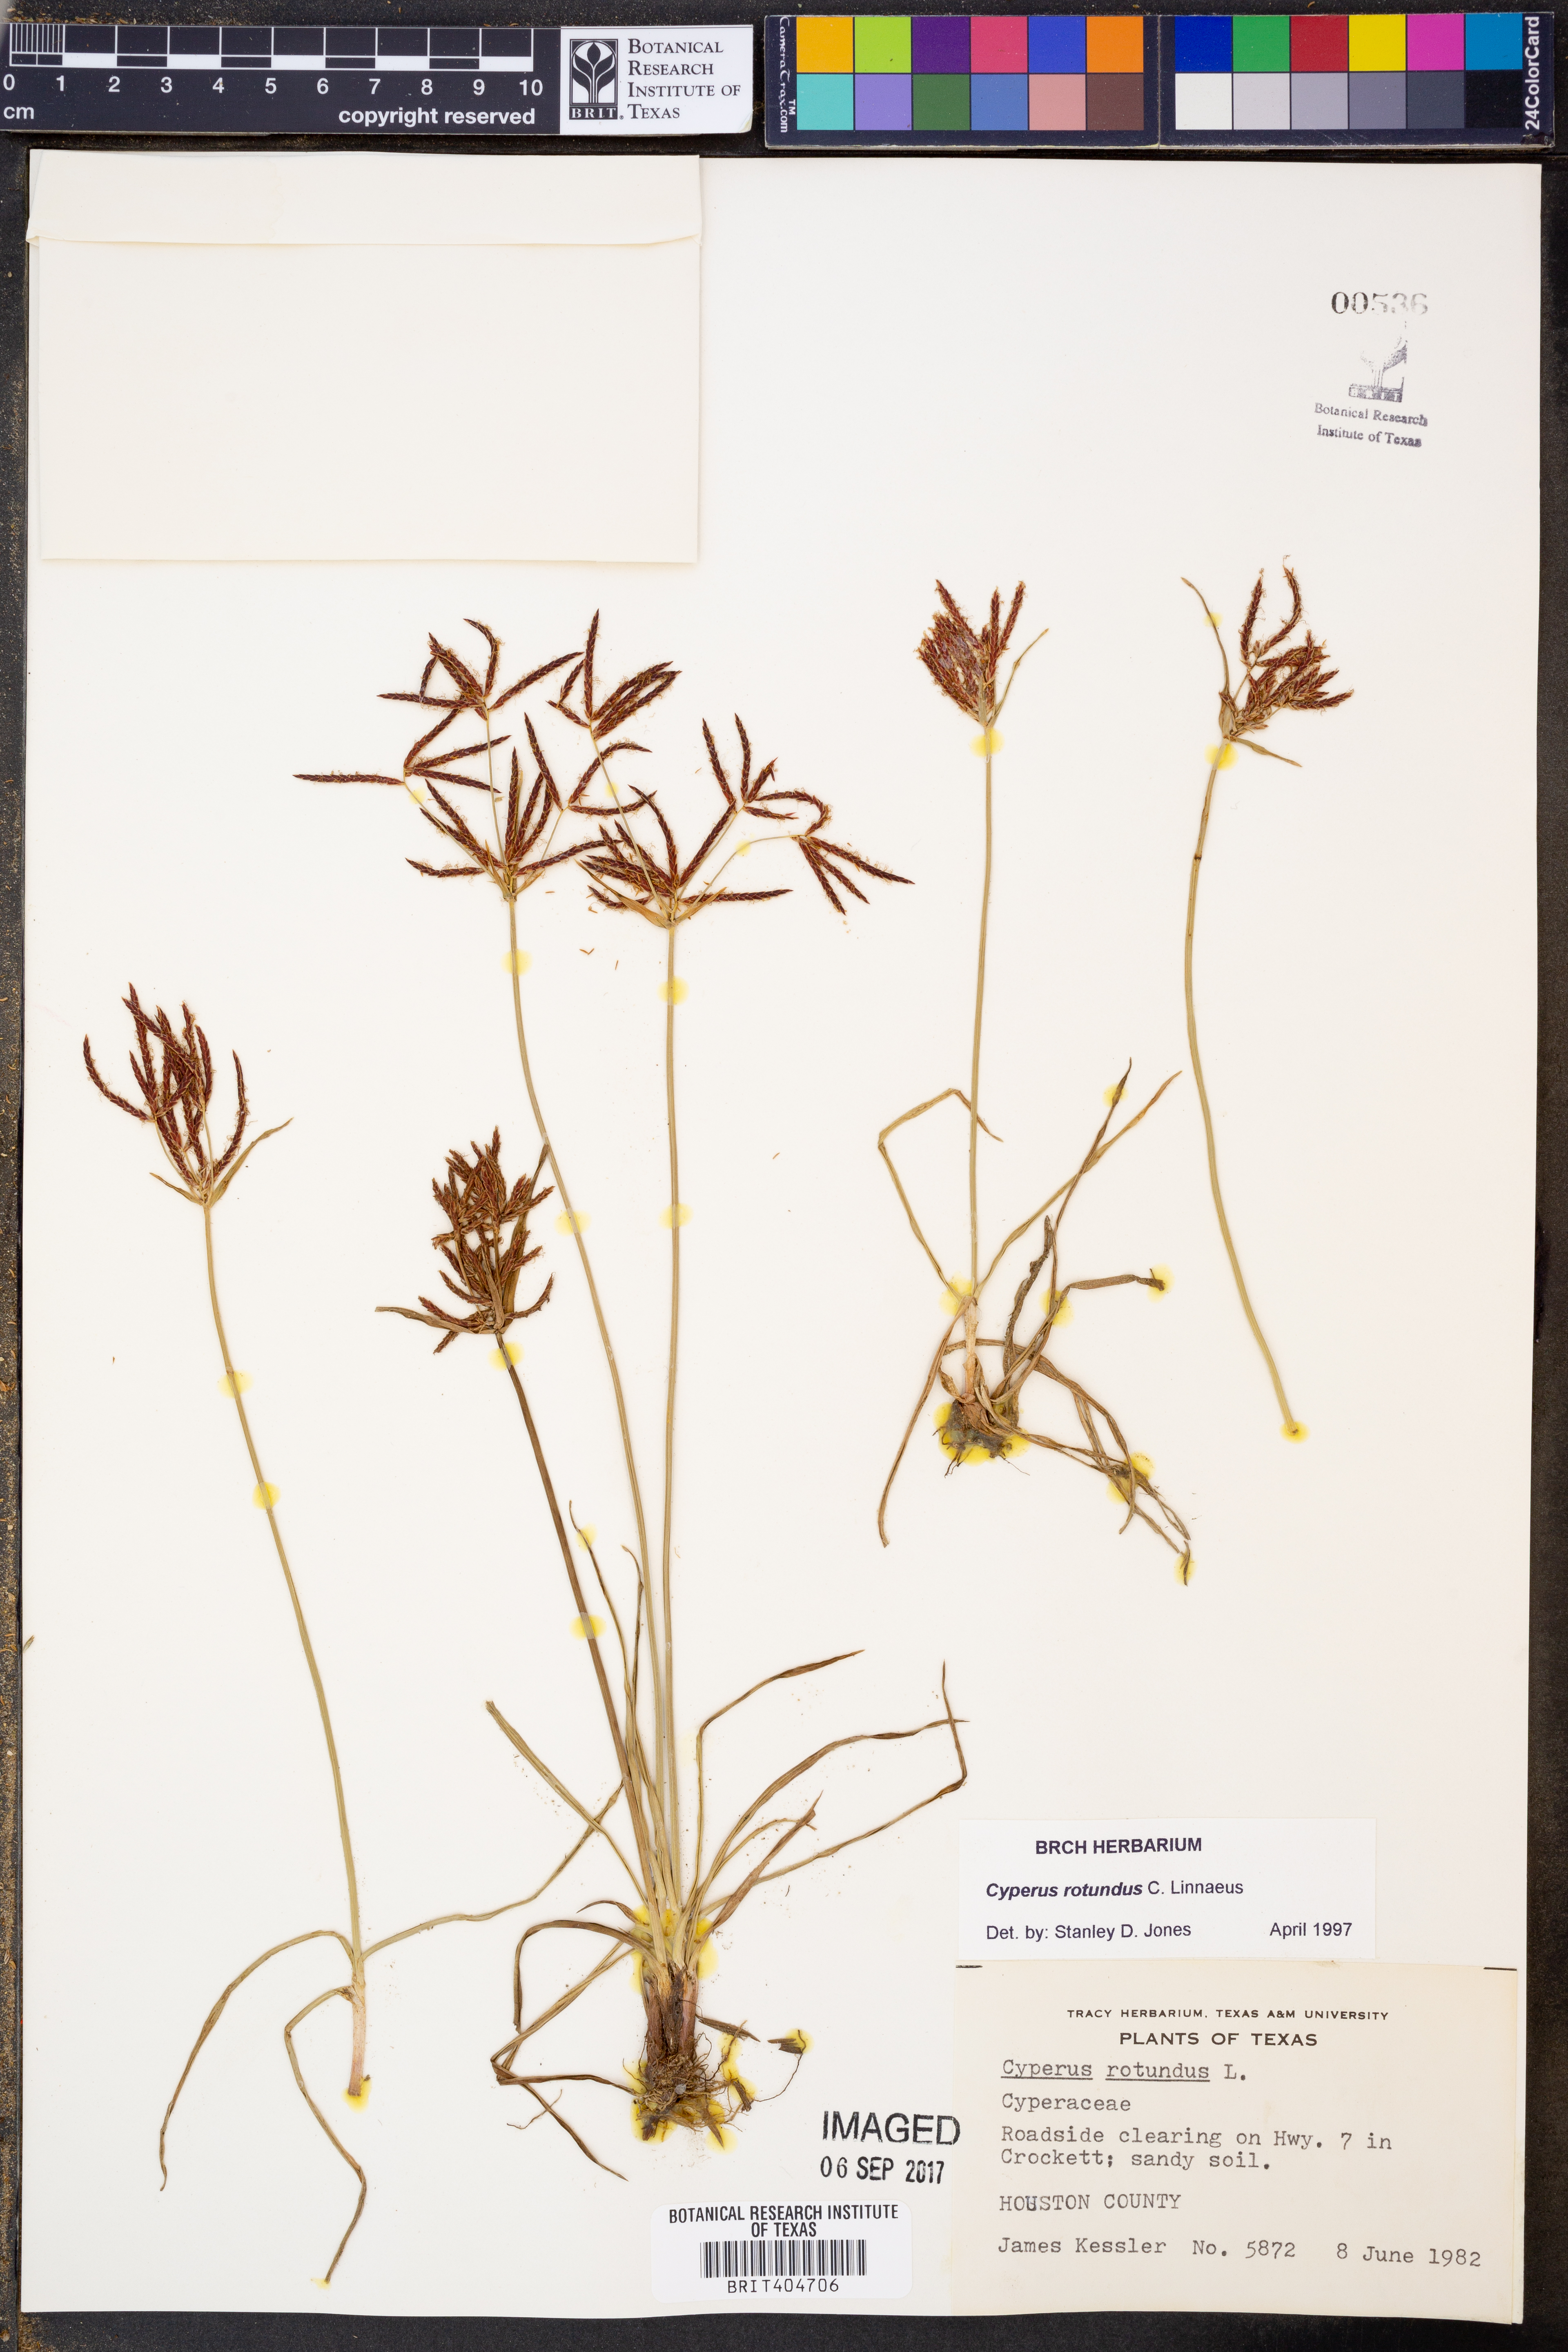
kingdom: Plantae
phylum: Tracheophyta
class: Liliopsida
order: Poales
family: Cyperaceae
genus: Cyperus
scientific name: Cyperus rotundus
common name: Nutgrass
